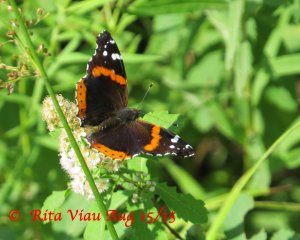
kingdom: Animalia
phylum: Arthropoda
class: Insecta
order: Lepidoptera
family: Nymphalidae
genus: Vanessa
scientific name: Vanessa atalanta
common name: Red Admiral
